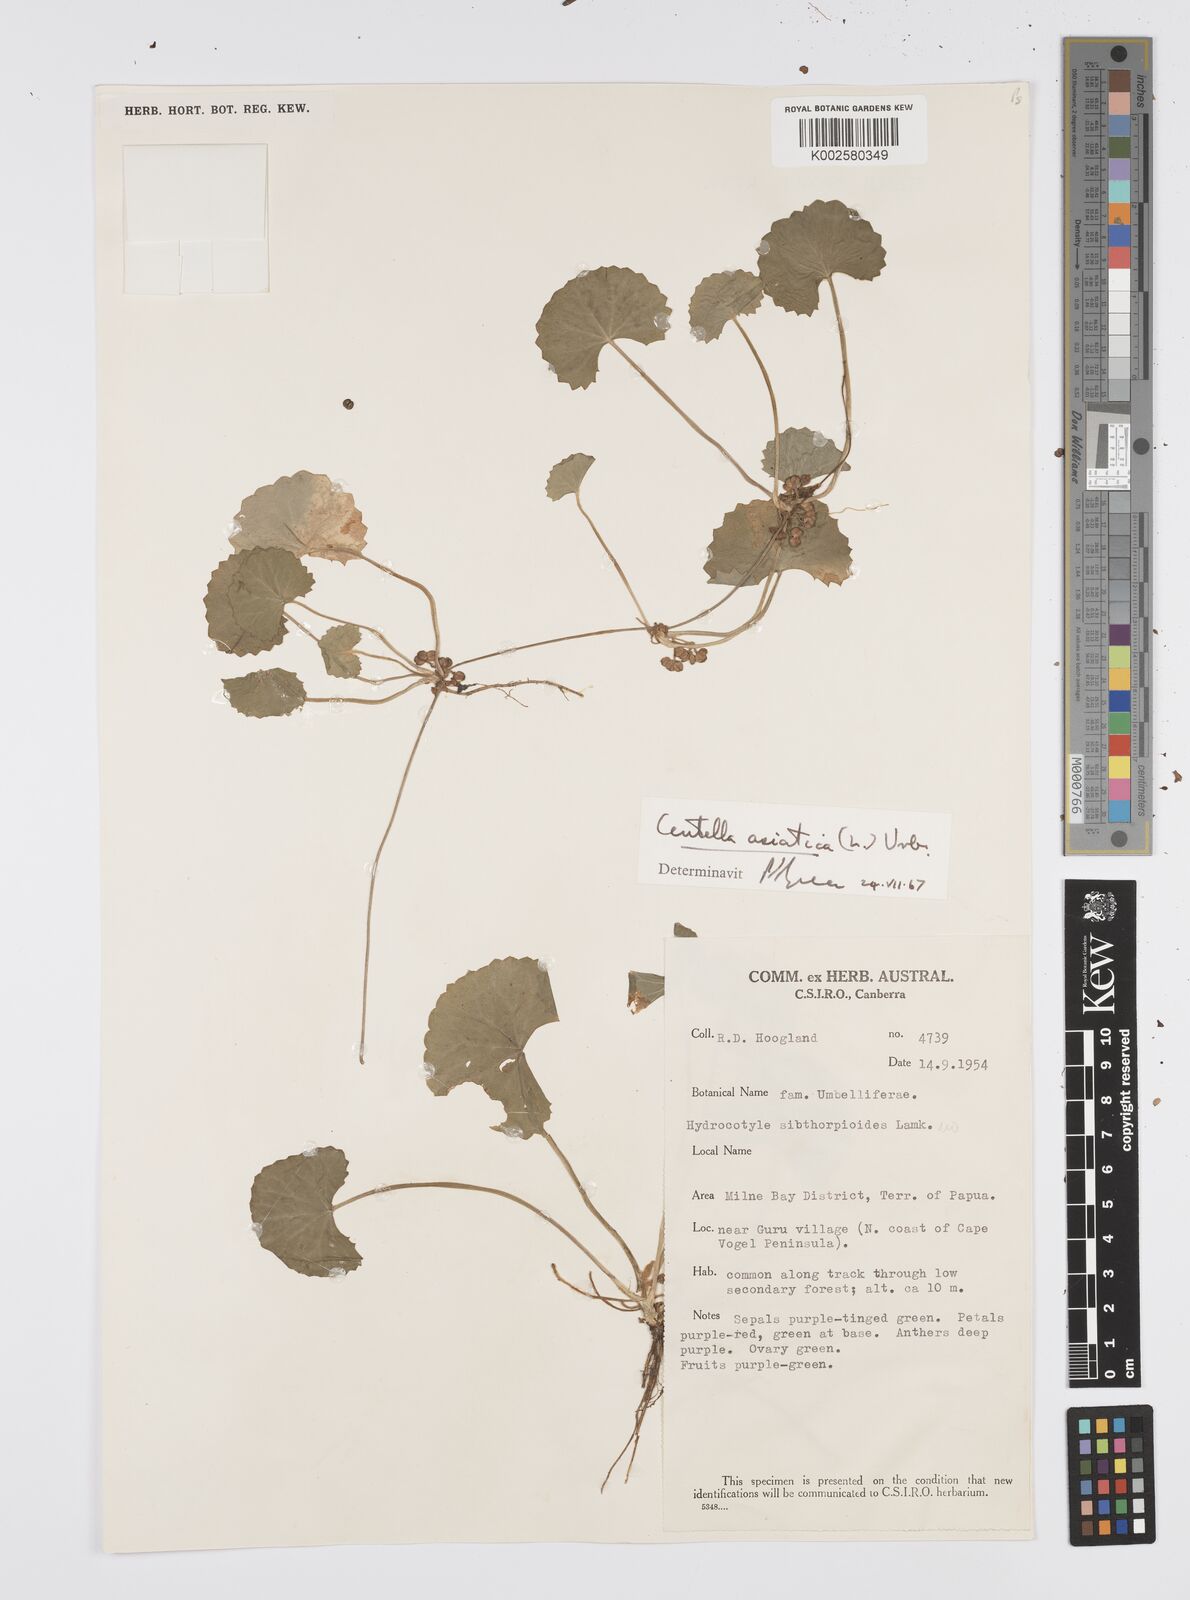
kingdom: Plantae
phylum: Tracheophyta
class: Magnoliopsida
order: Apiales
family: Apiaceae
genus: Centella
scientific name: Centella asiatica
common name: Spadeleaf
